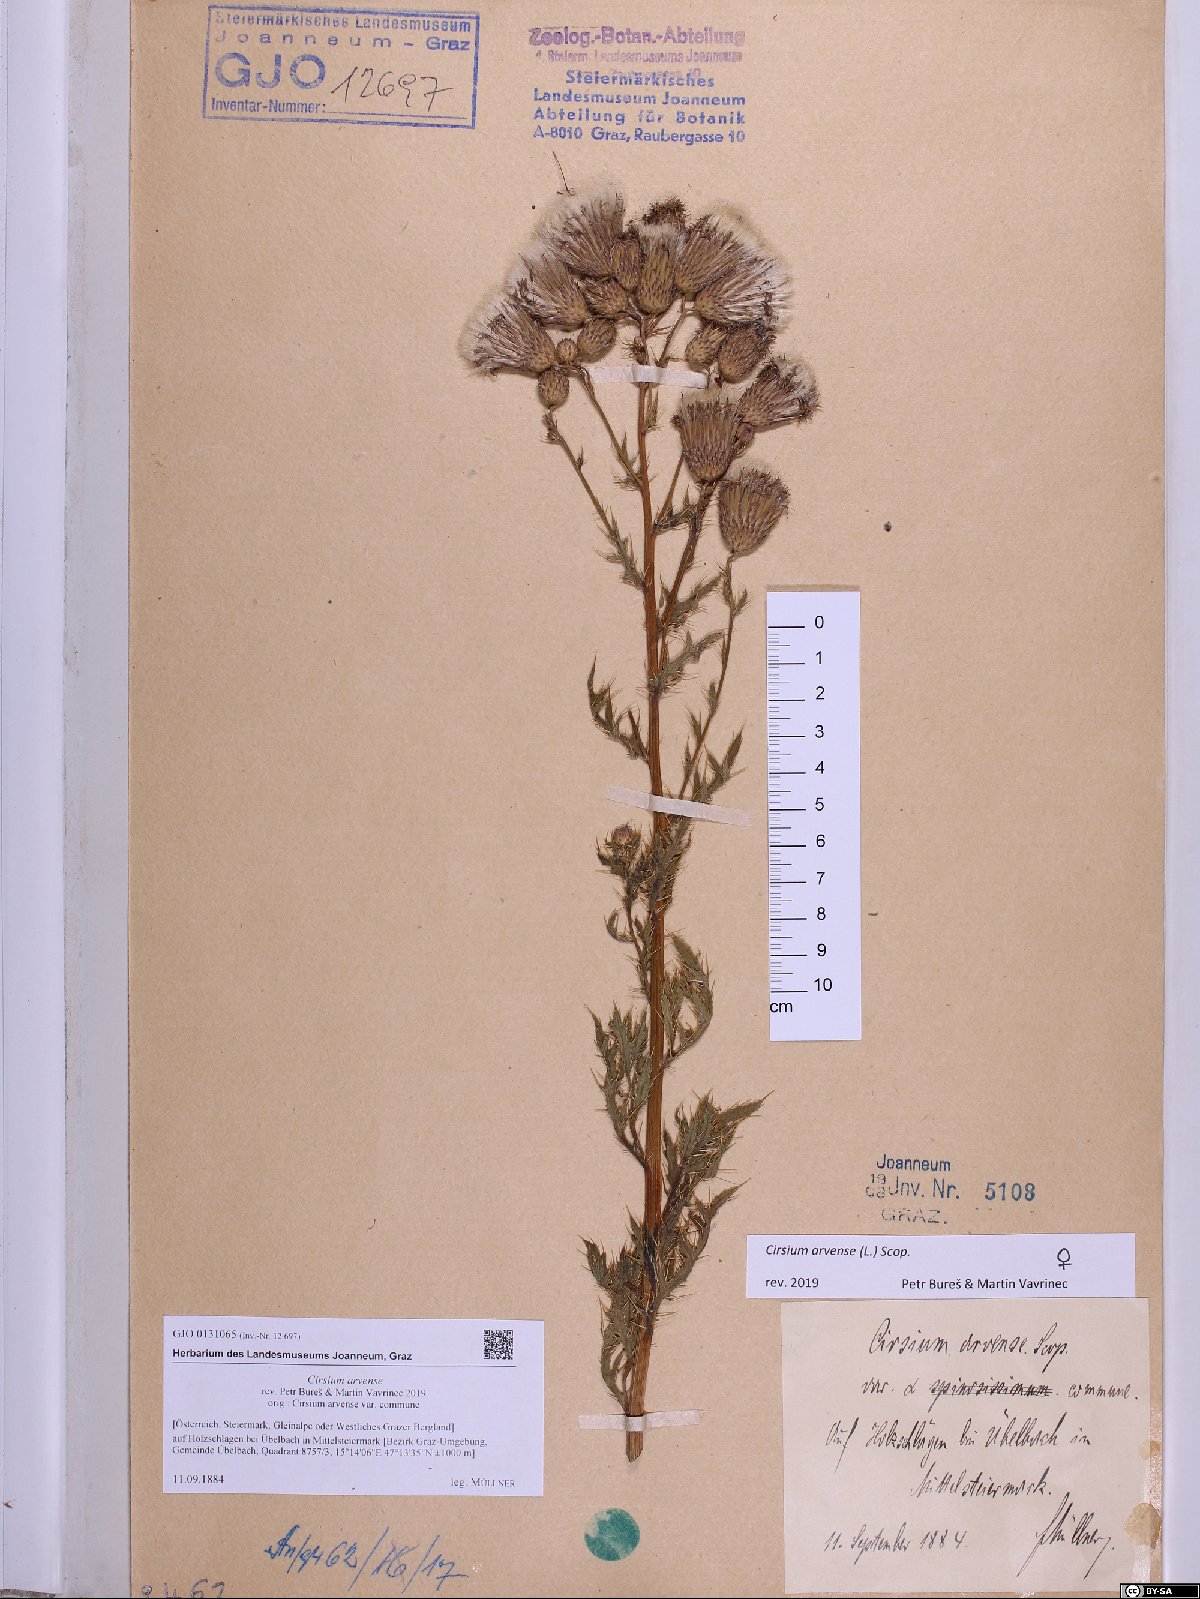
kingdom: Plantae
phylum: Tracheophyta
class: Magnoliopsida
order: Asterales
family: Asteraceae
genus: Cirsium
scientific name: Cirsium arvense
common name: Creeping thistle
